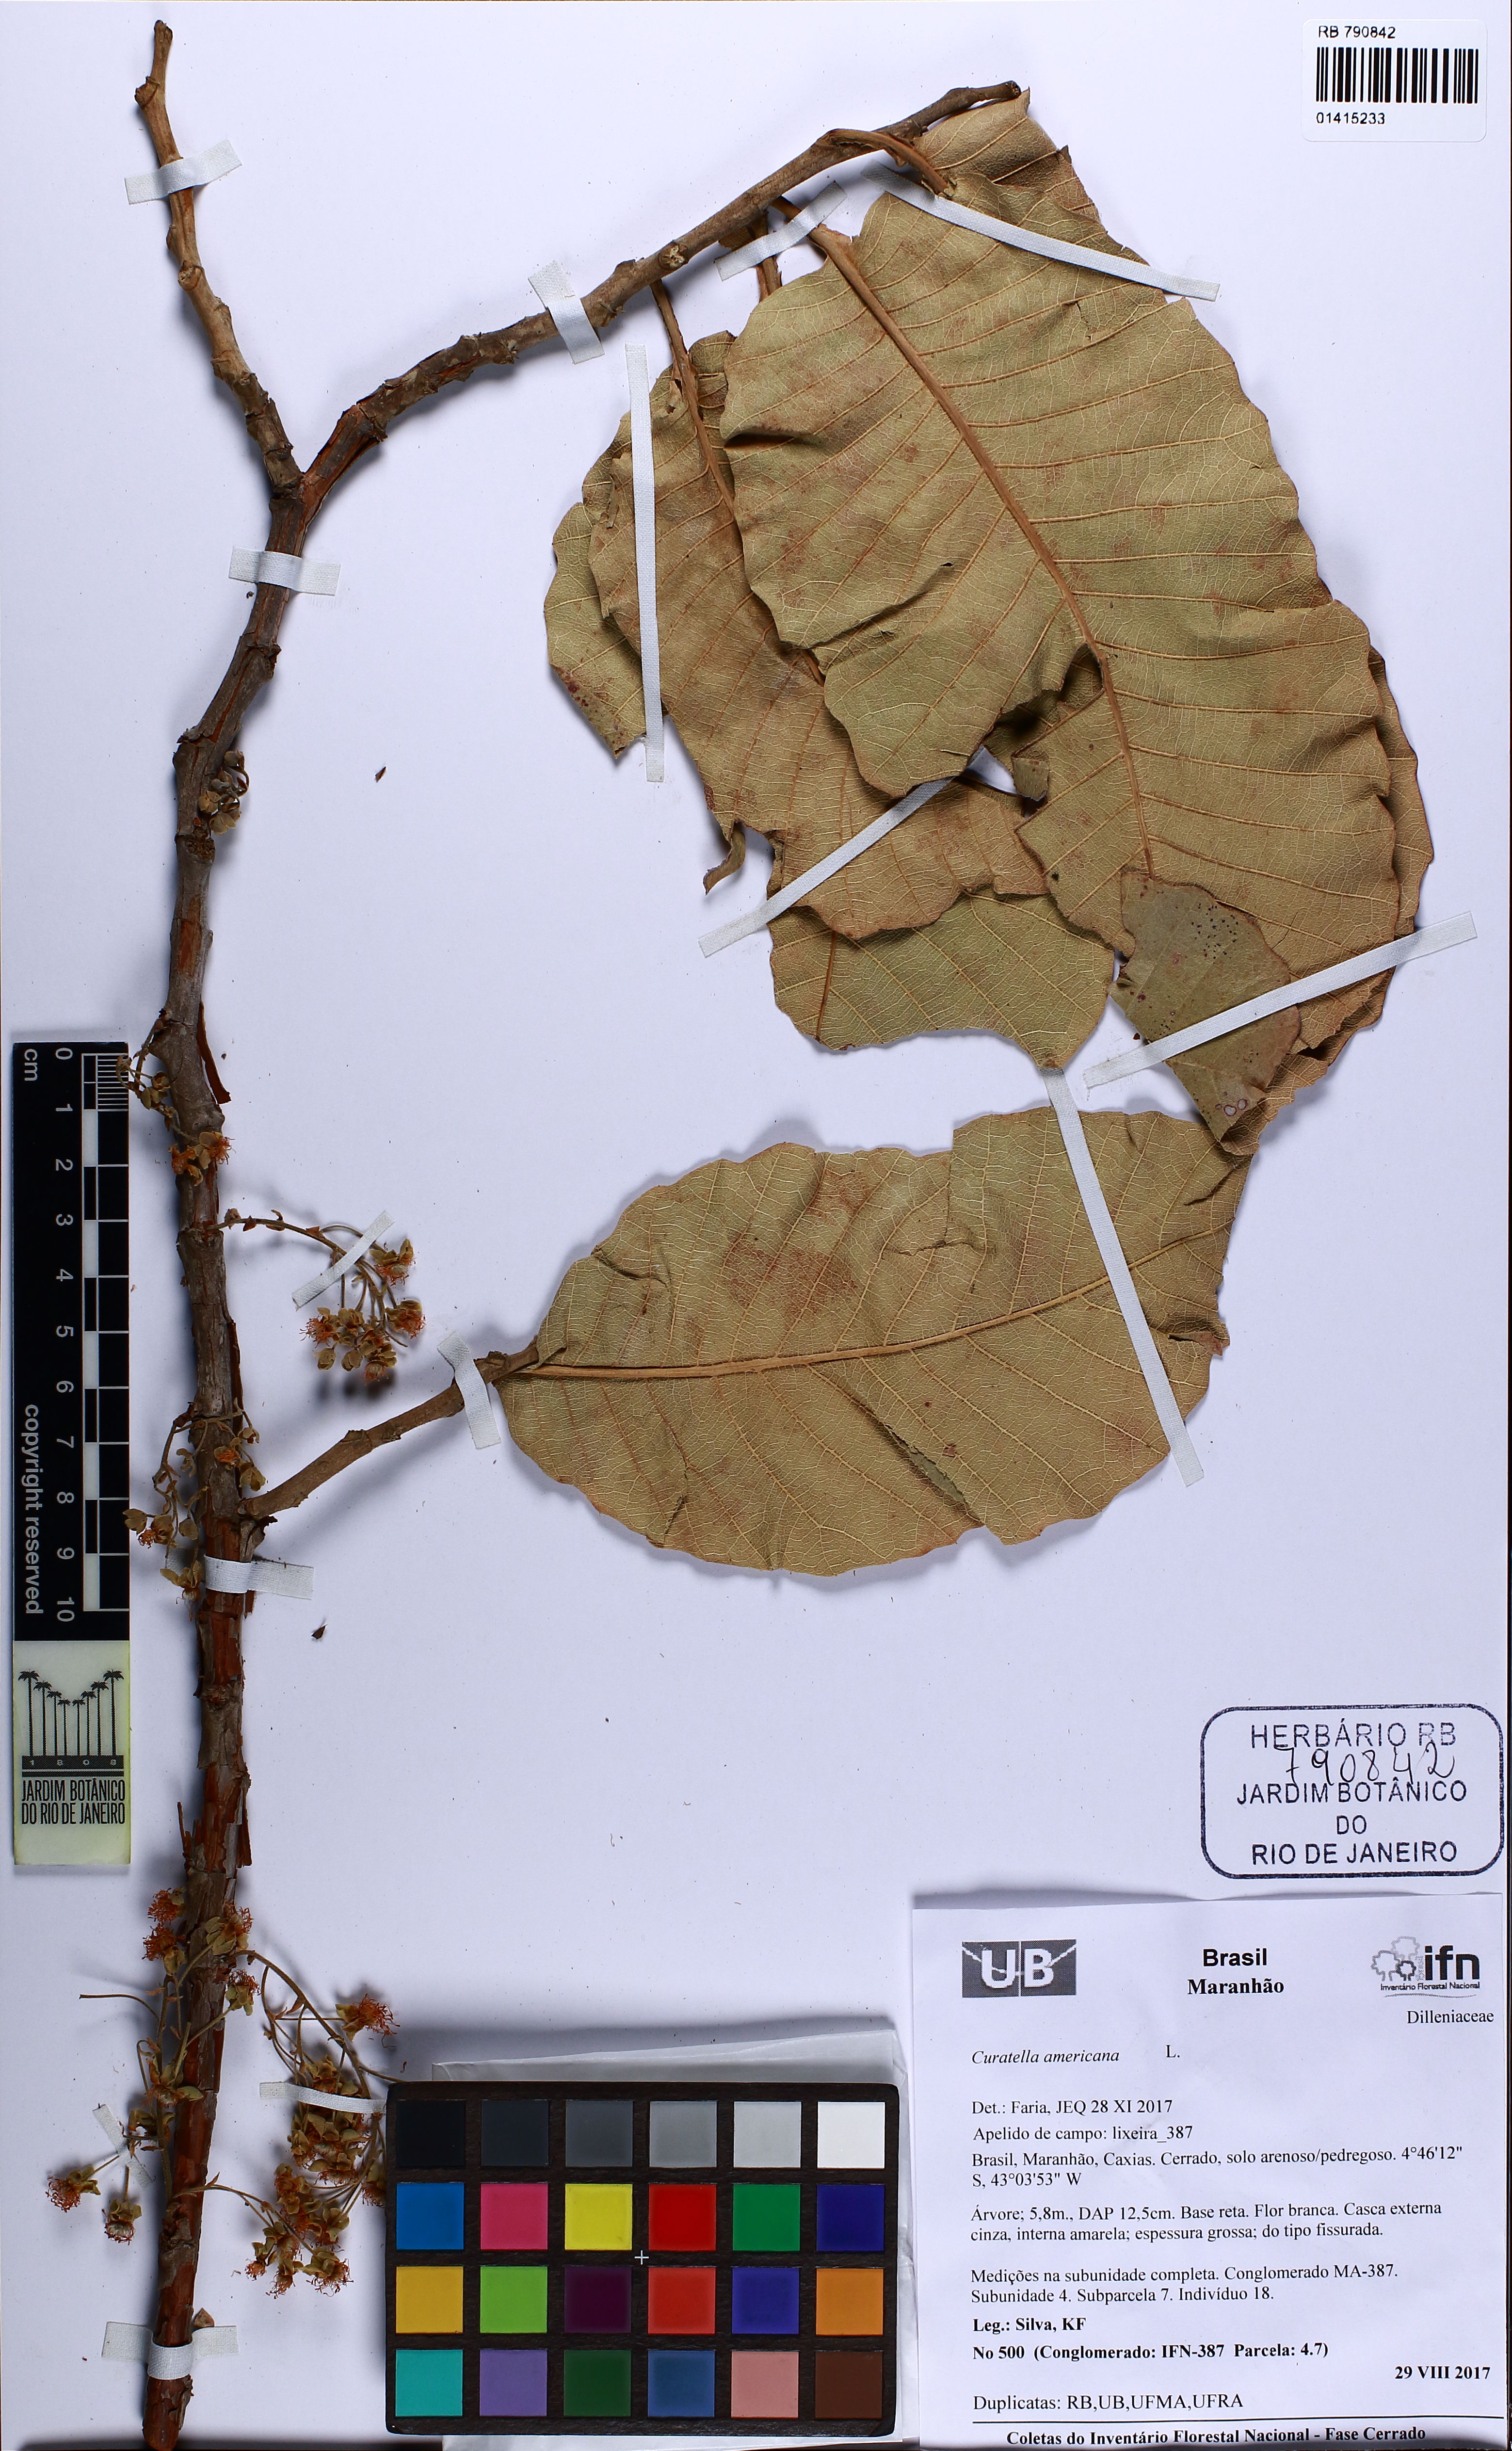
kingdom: Plantae
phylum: Tracheophyta
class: Magnoliopsida
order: Dilleniales
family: Dilleniaceae
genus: Curatella
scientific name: Curatella americana
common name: Sandpaper tree
